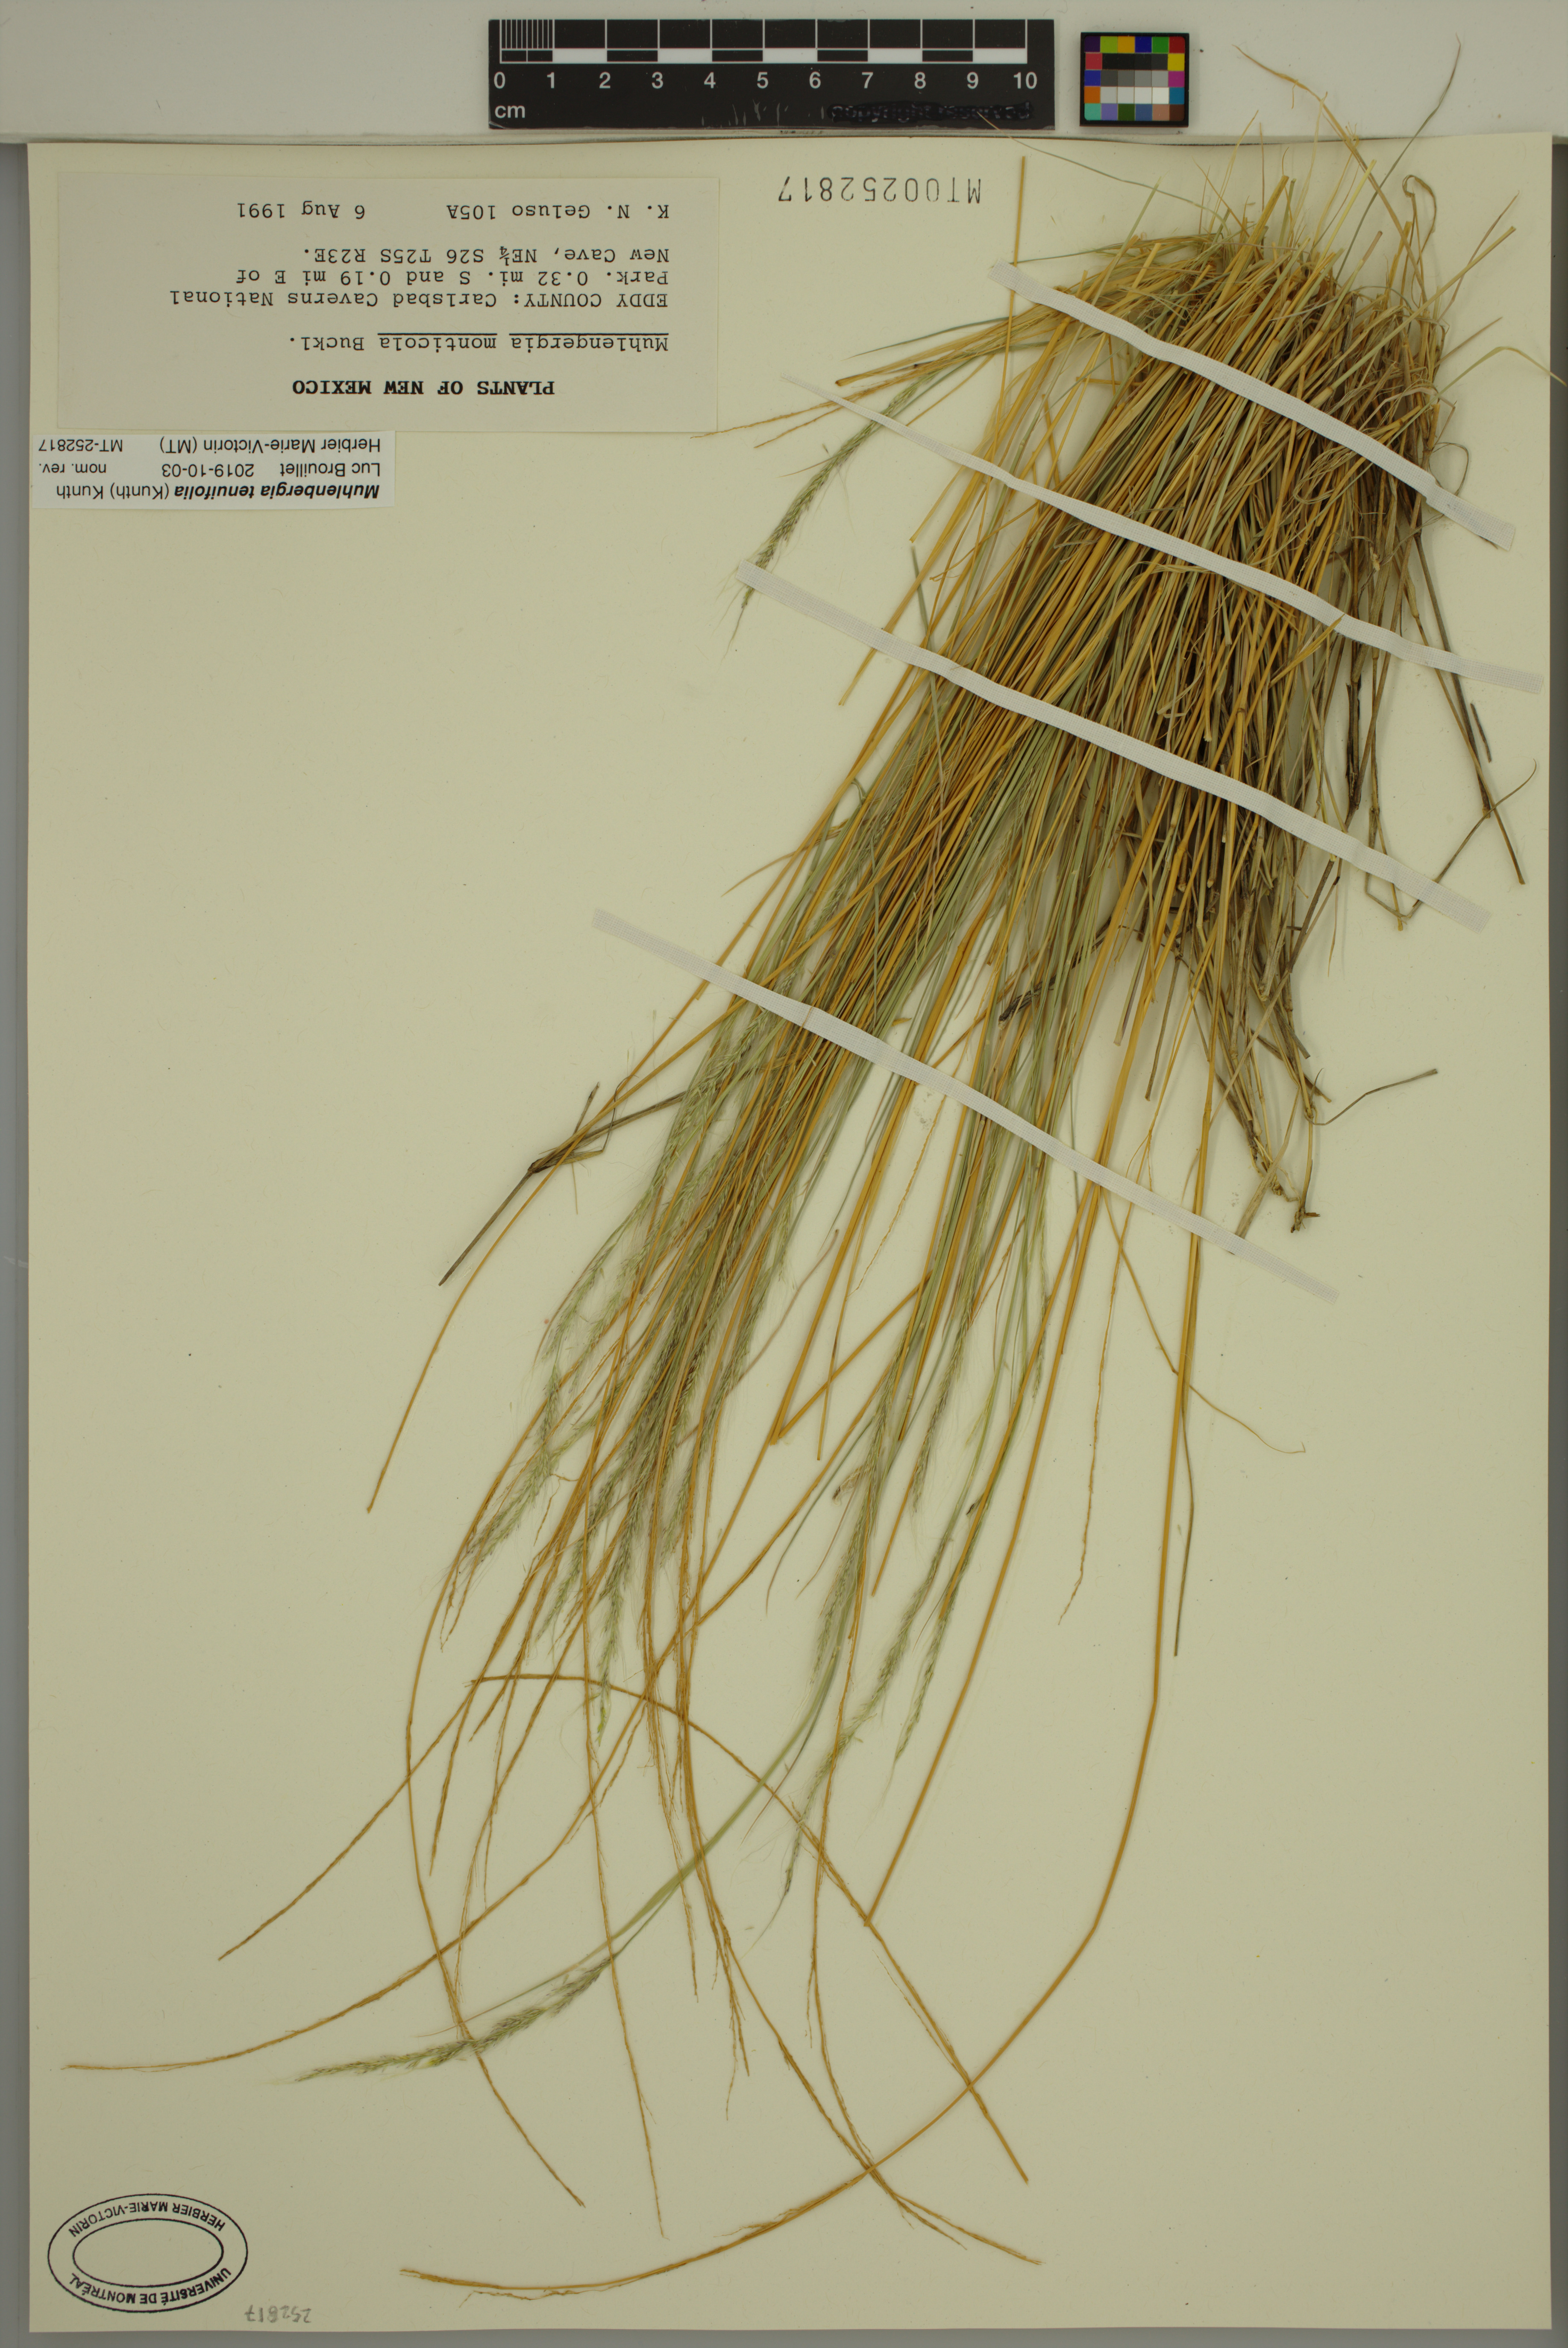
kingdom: Plantae
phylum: Tracheophyta
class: Liliopsida
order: Poales
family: Poaceae
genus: Muhlenbergia
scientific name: Muhlenbergia tenuifolia
